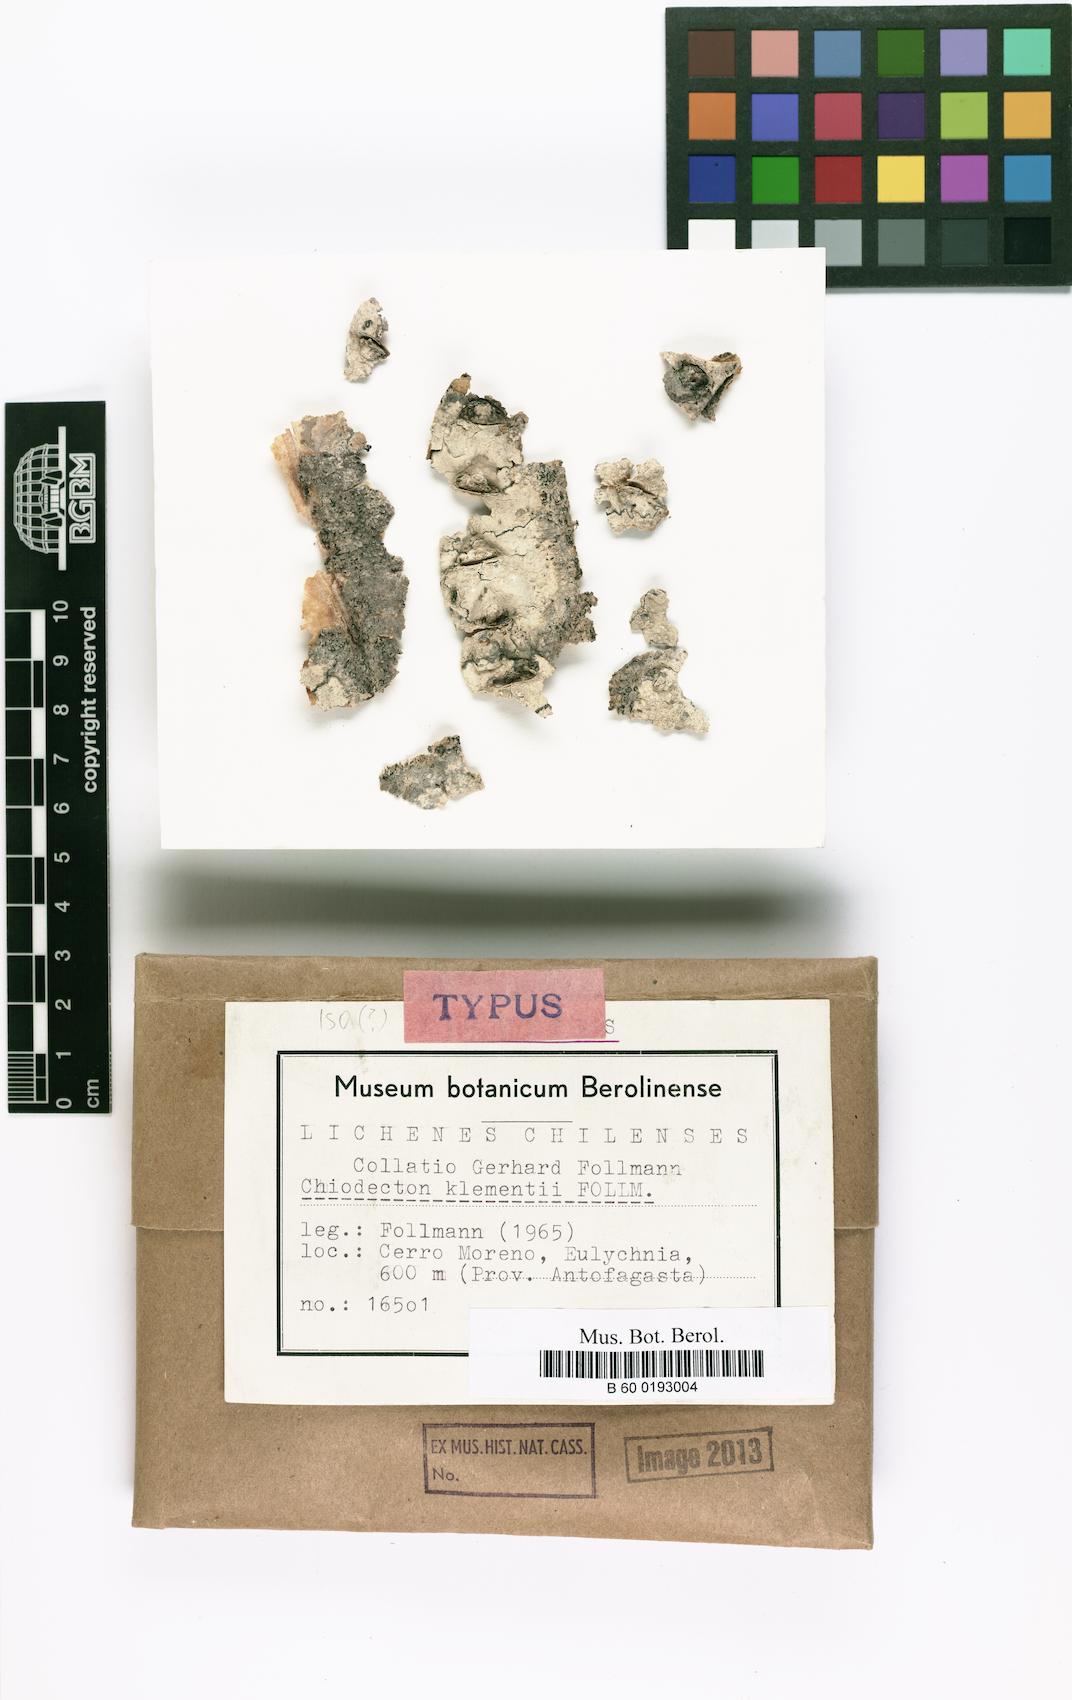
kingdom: Fungi
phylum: Ascomycota
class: Arthoniomycetes
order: Arthoniales
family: Roccellographaceae
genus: Fulvophyton
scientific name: Fulvophyton klementii
